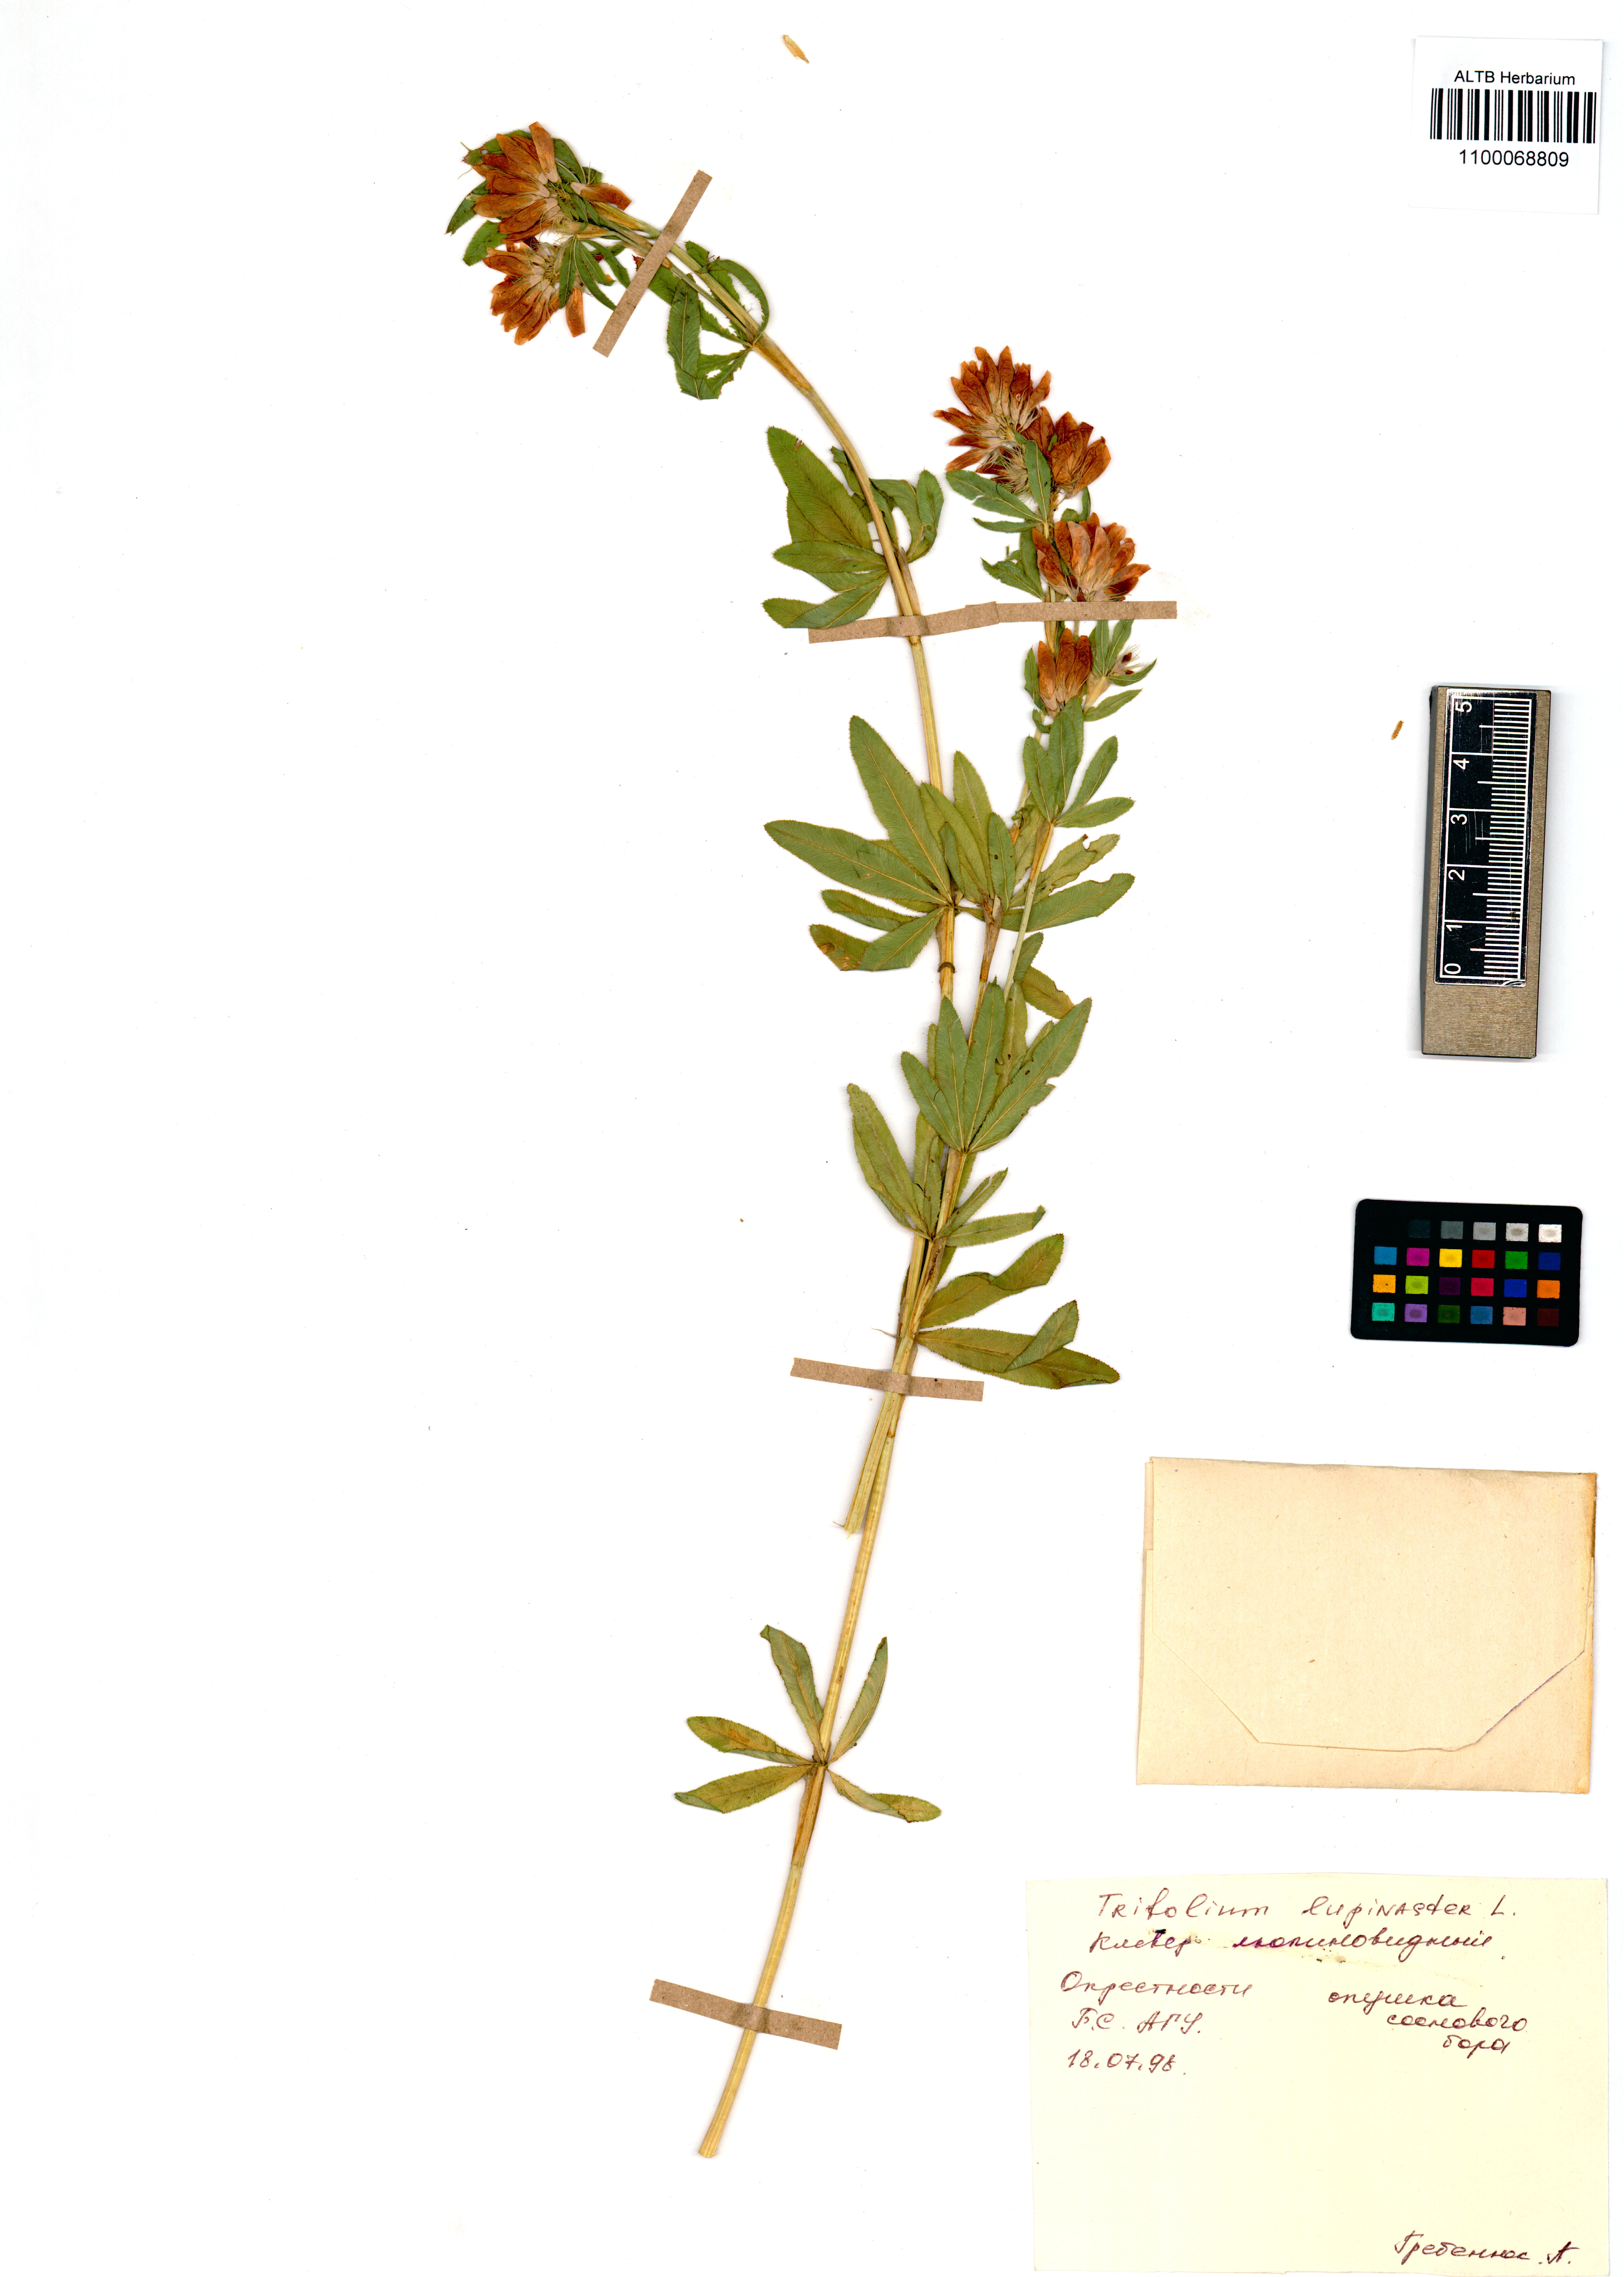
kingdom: Plantae
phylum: Tracheophyta
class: Magnoliopsida
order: Fabales
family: Fabaceae
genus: Trifolium
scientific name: Trifolium lupinaster
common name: Lupine clover
